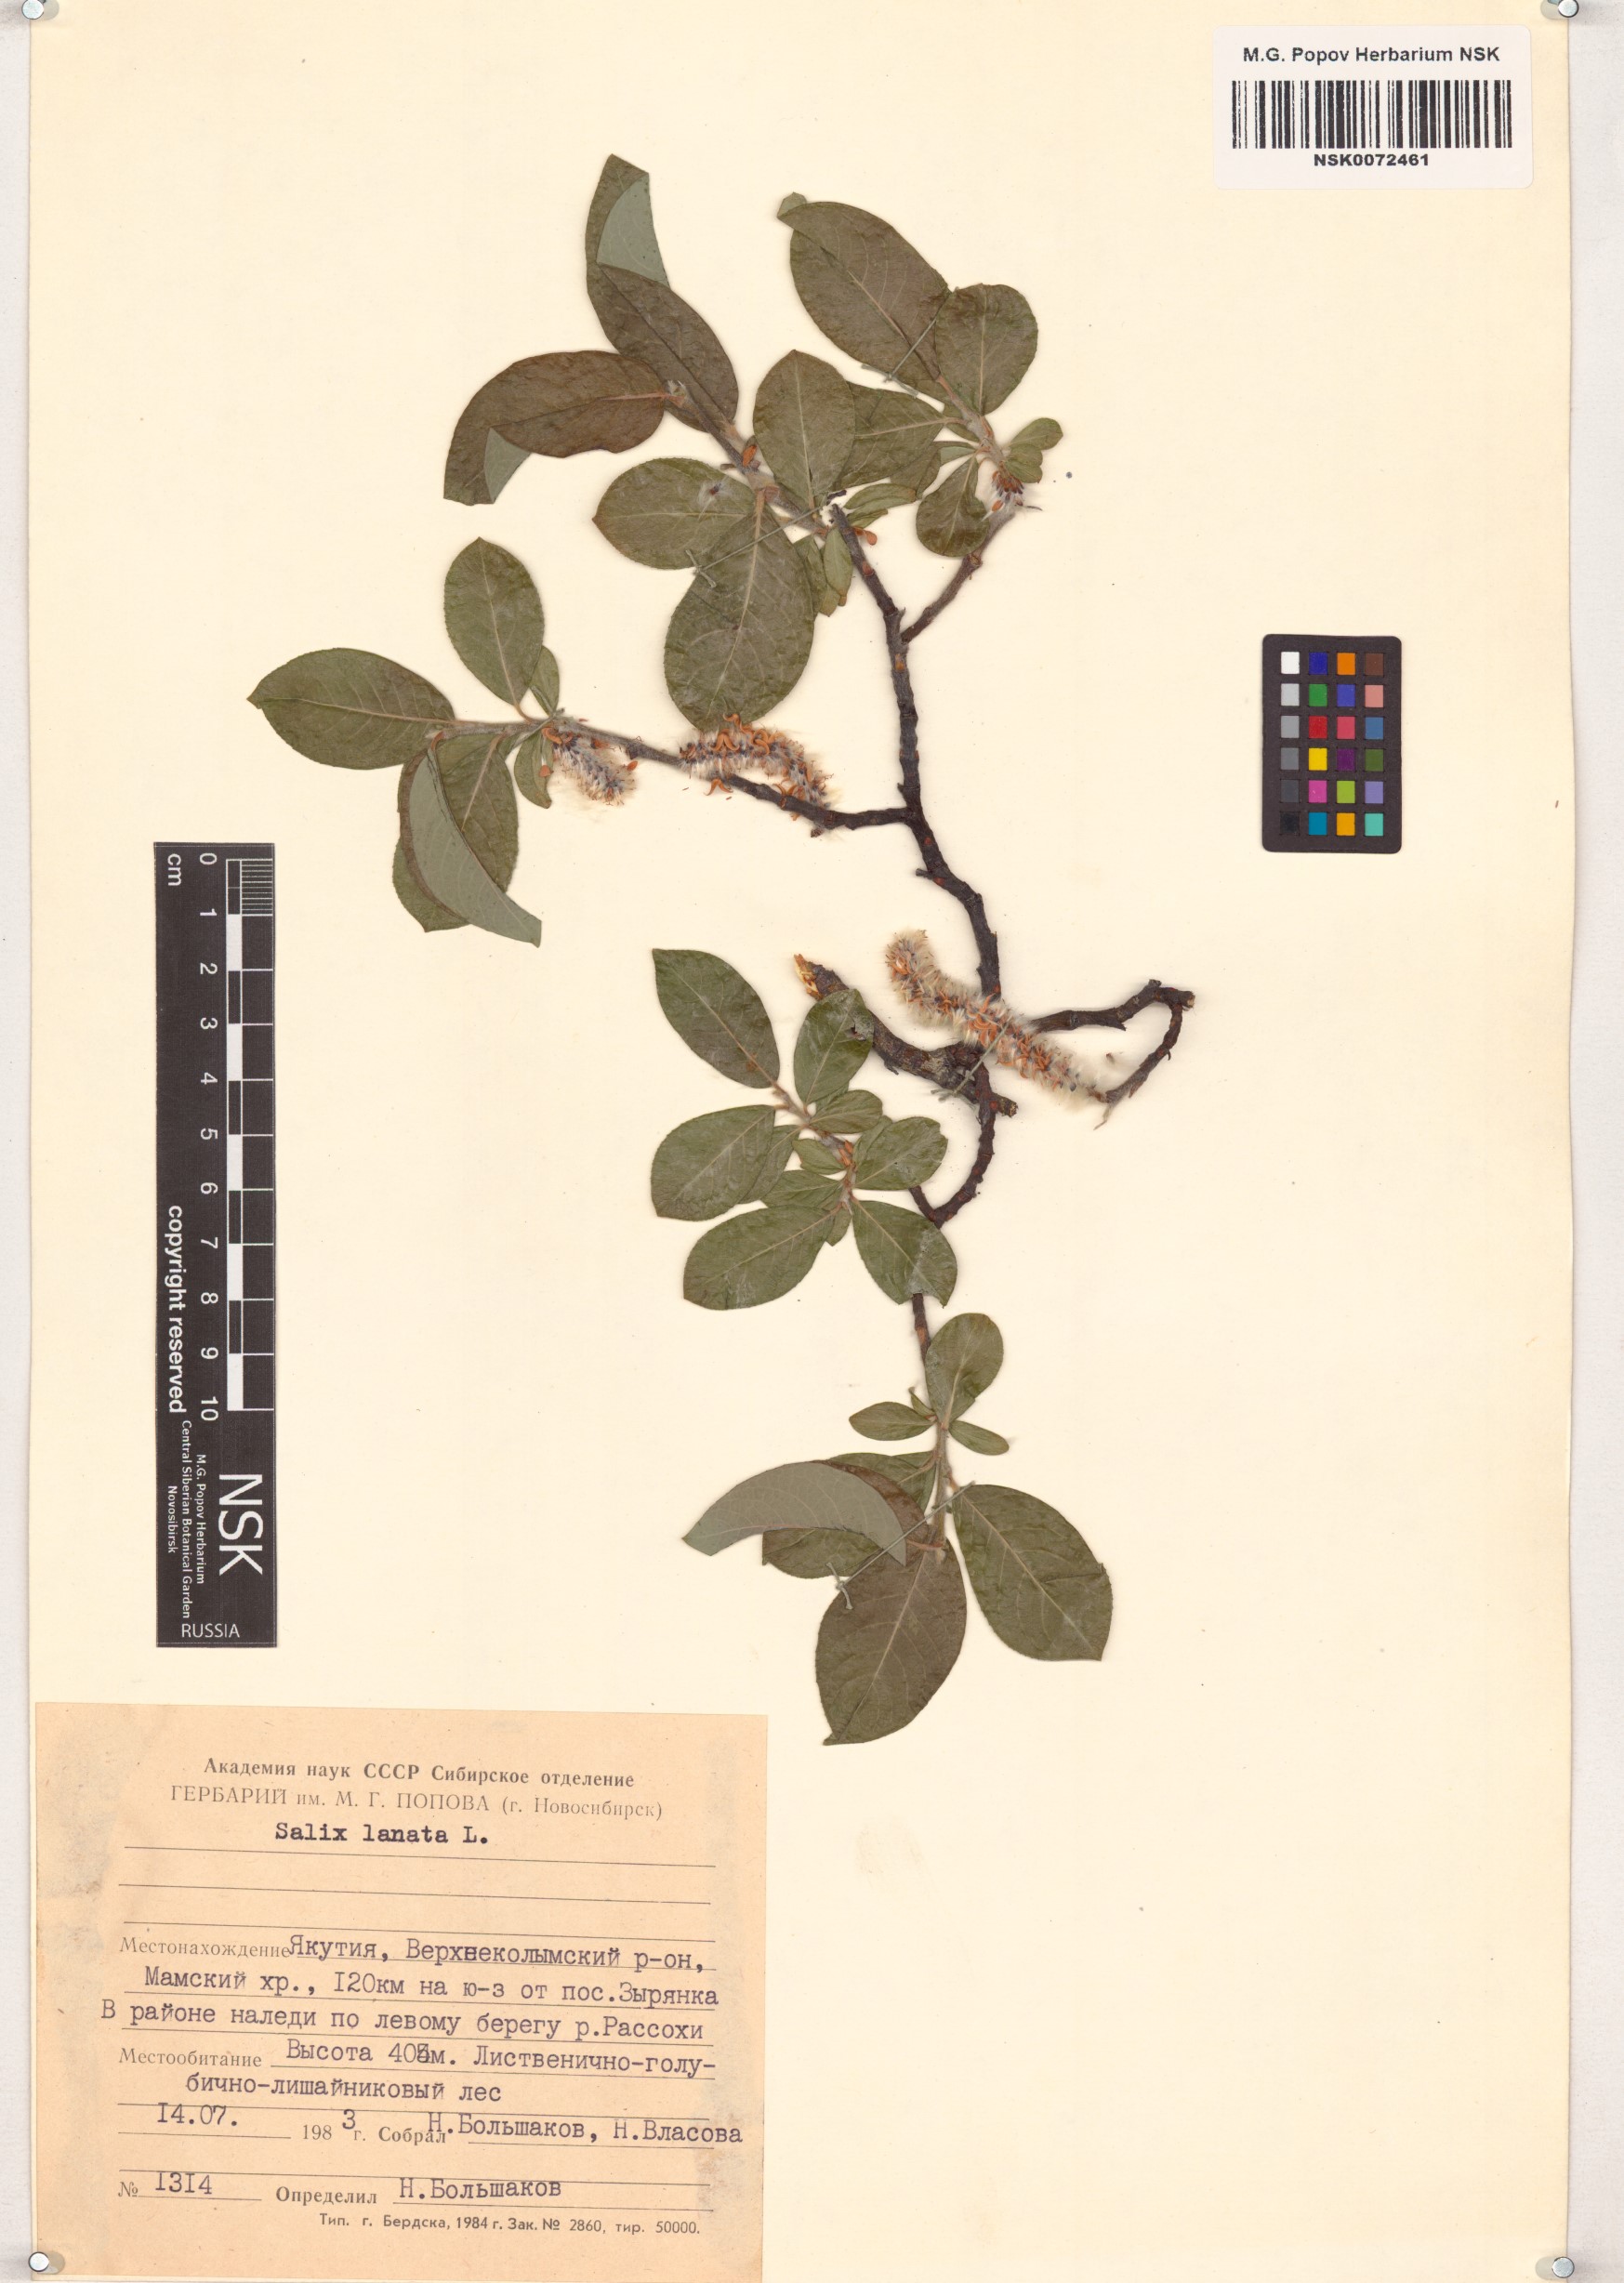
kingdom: Plantae
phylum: Tracheophyta
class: Magnoliopsida
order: Malpighiales
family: Salicaceae
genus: Salix
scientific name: Salix lanata
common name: Woolly willow
